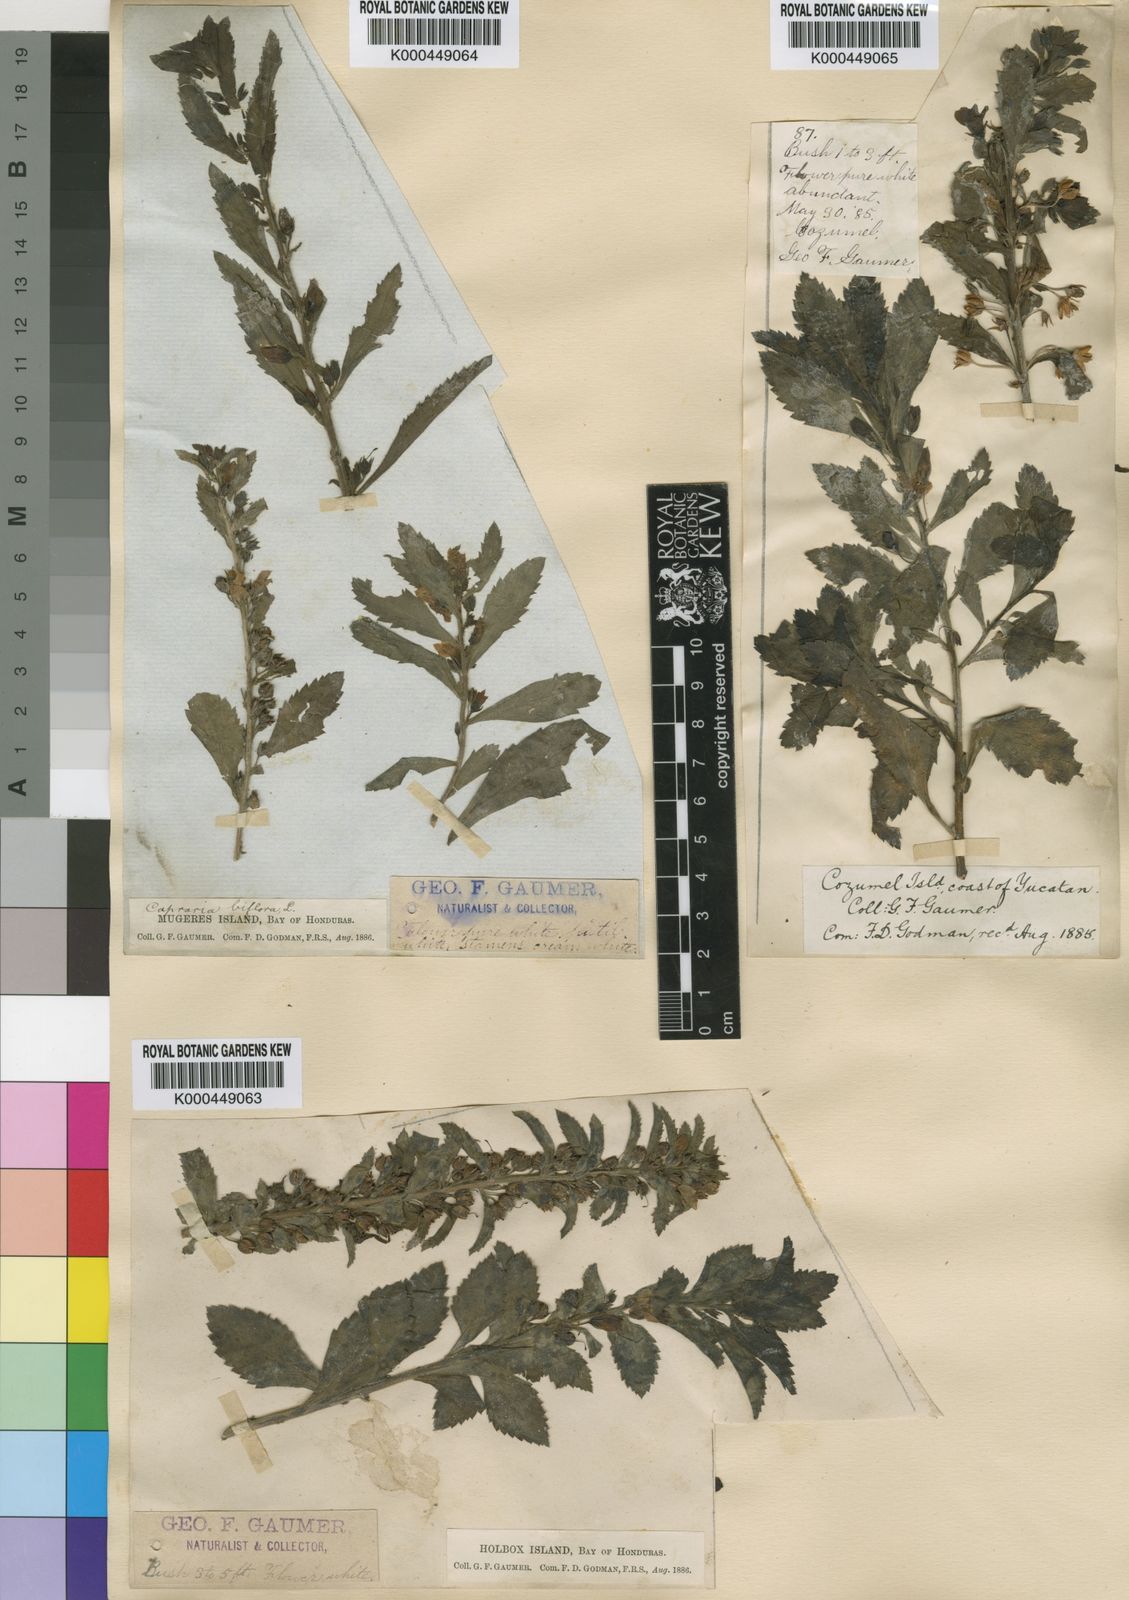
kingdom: Plantae
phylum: Tracheophyta
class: Magnoliopsida
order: Lamiales
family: Scrophulariaceae
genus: Capraria
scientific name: Capraria biflora
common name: Goatweed
